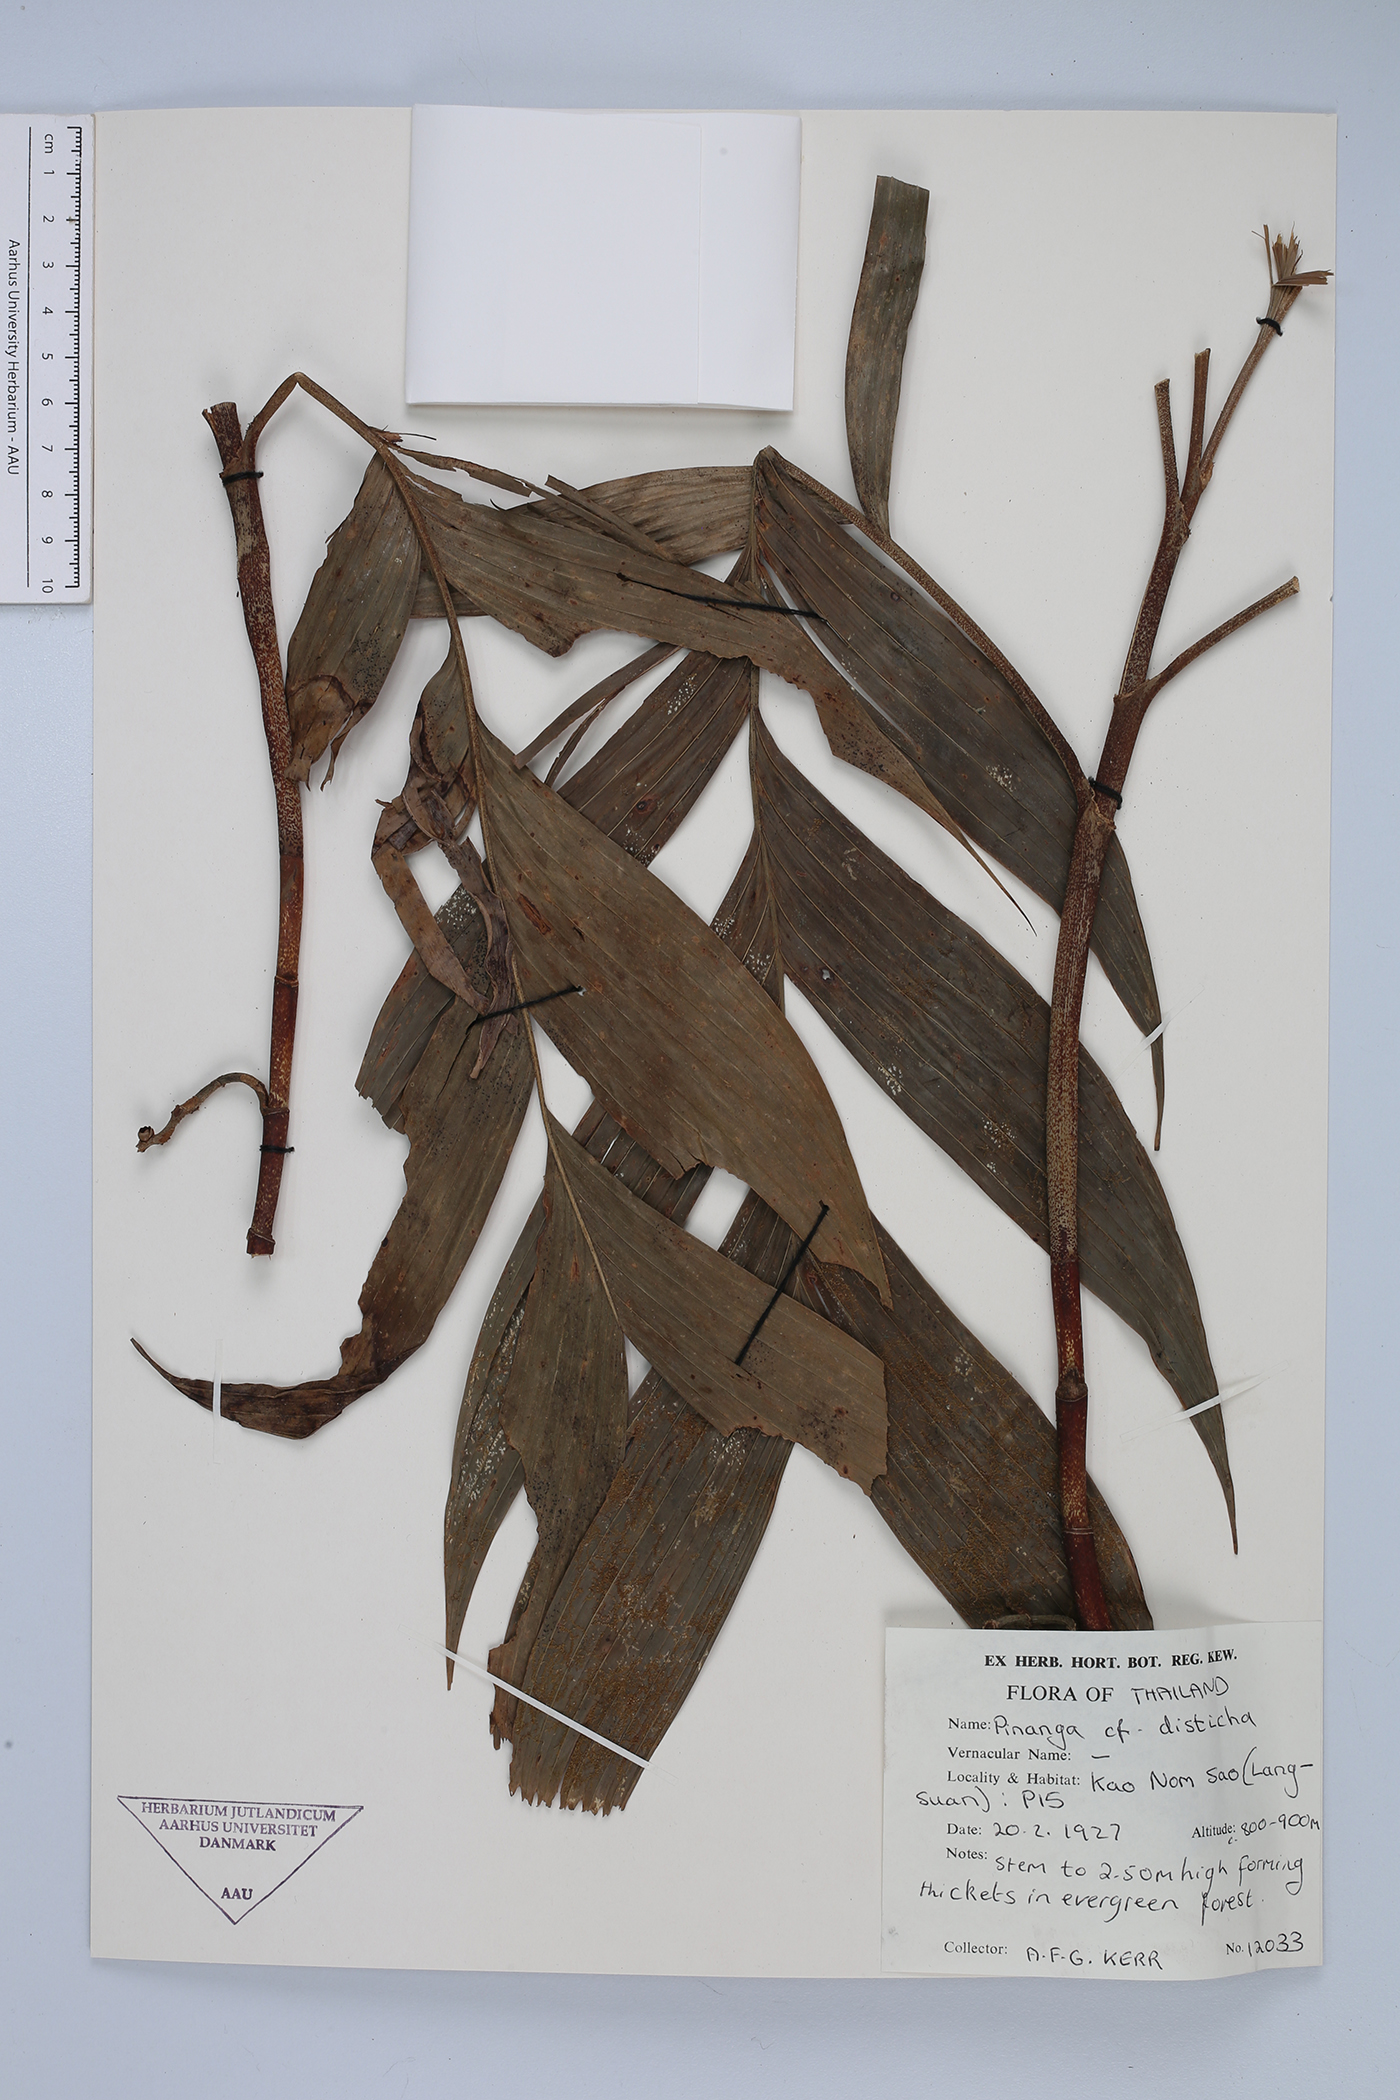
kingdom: Plantae
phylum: Tracheophyta
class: Liliopsida
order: Arecales
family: Arecaceae
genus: Pinanga
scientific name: Pinanga disticha
